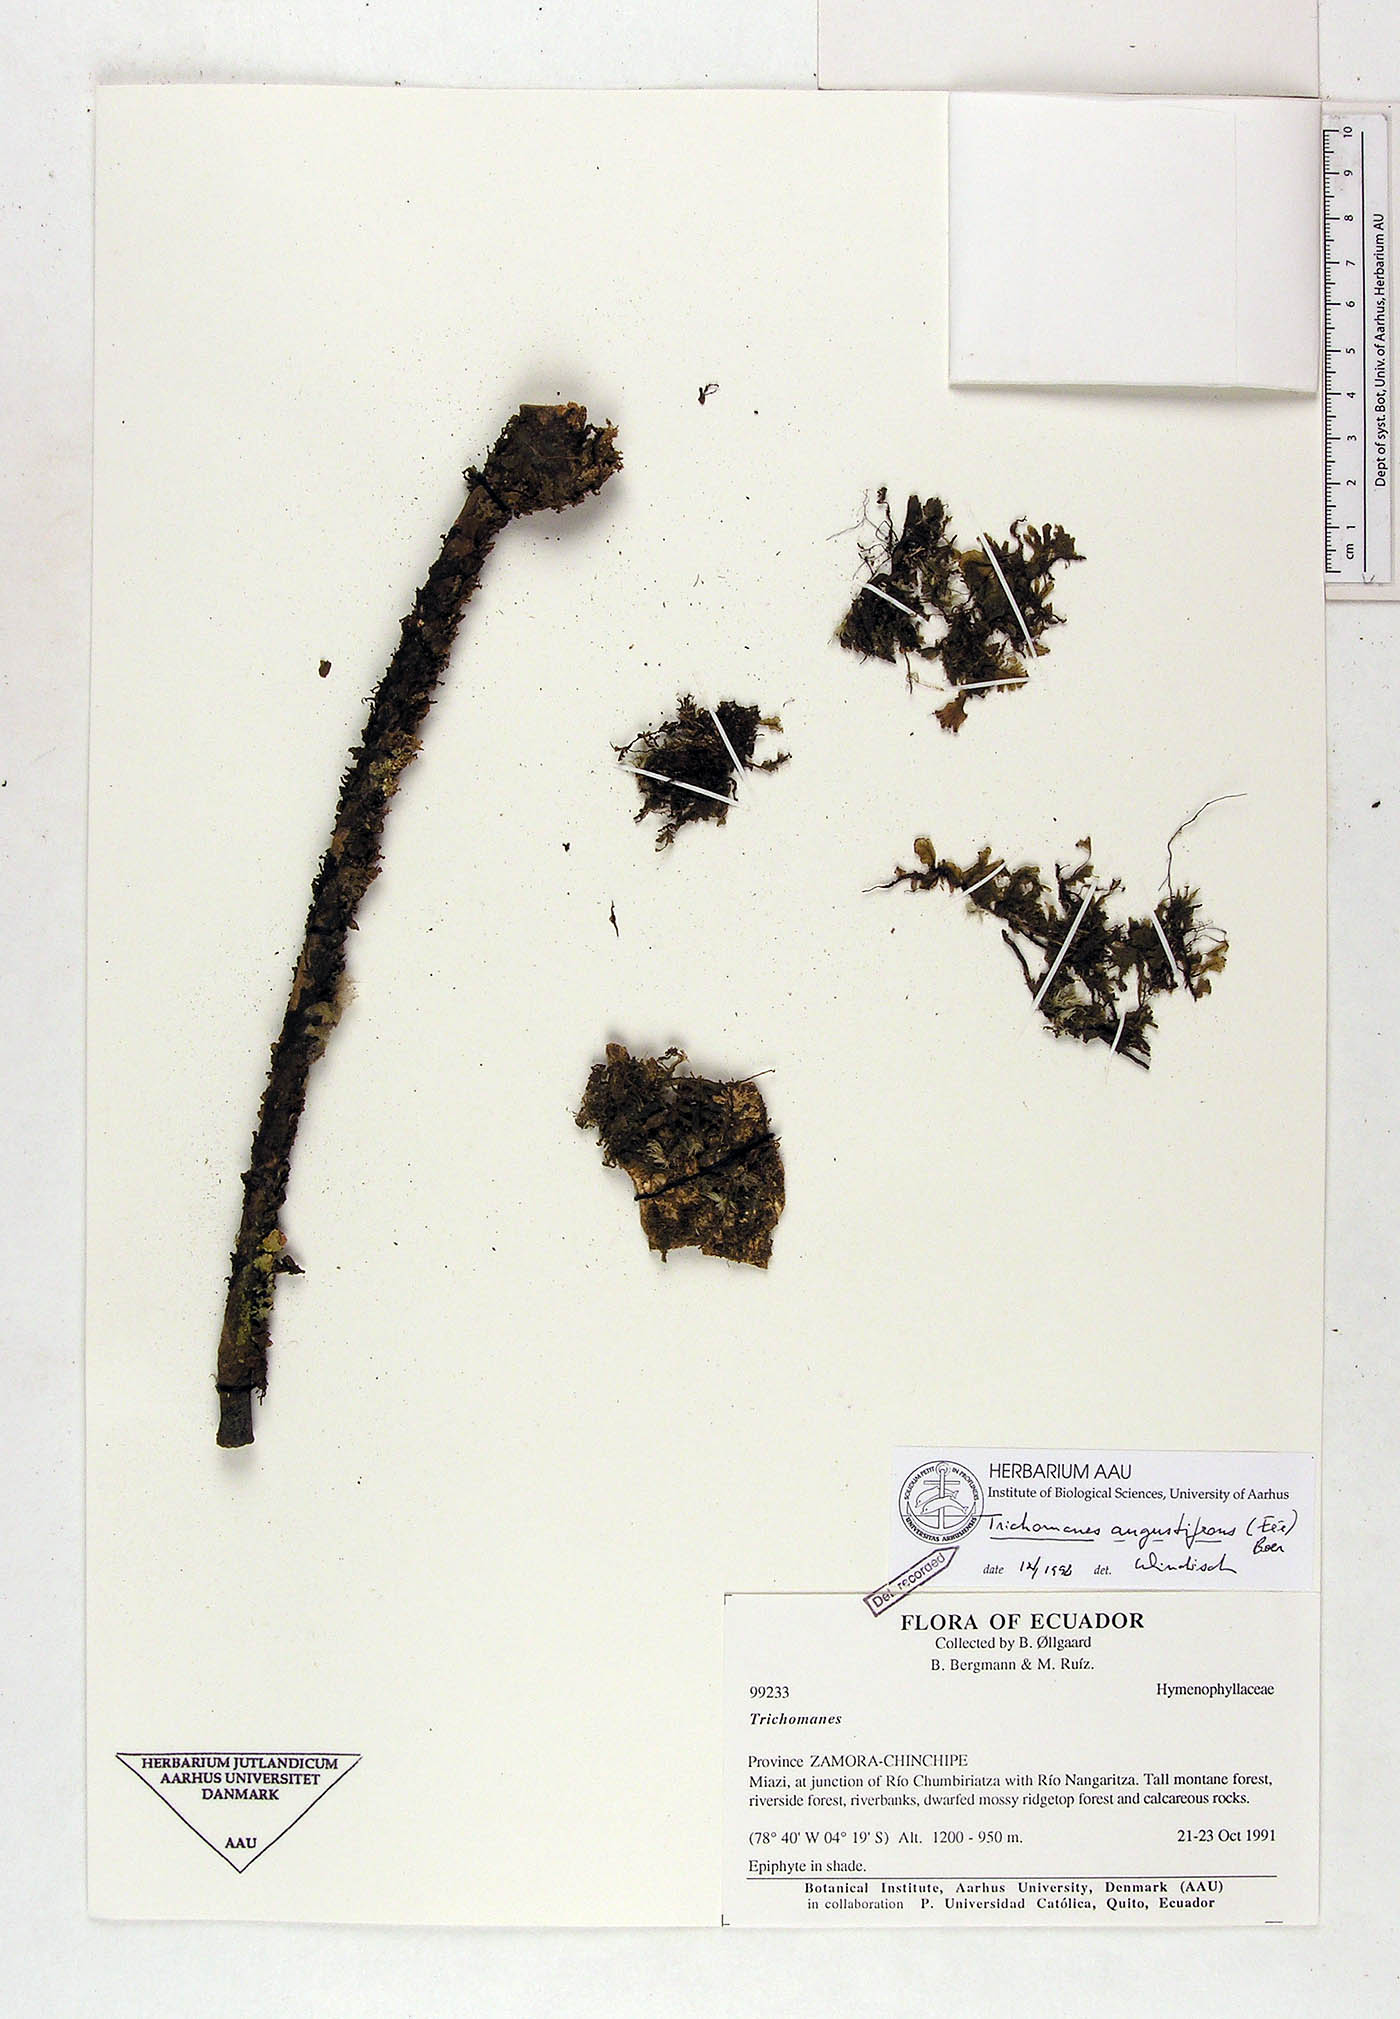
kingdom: Plantae
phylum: Tracheophyta
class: Polypodiopsida
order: Hymenophyllales
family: Hymenophyllaceae
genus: Didymoglossum
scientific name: Didymoglossum angustifrons
